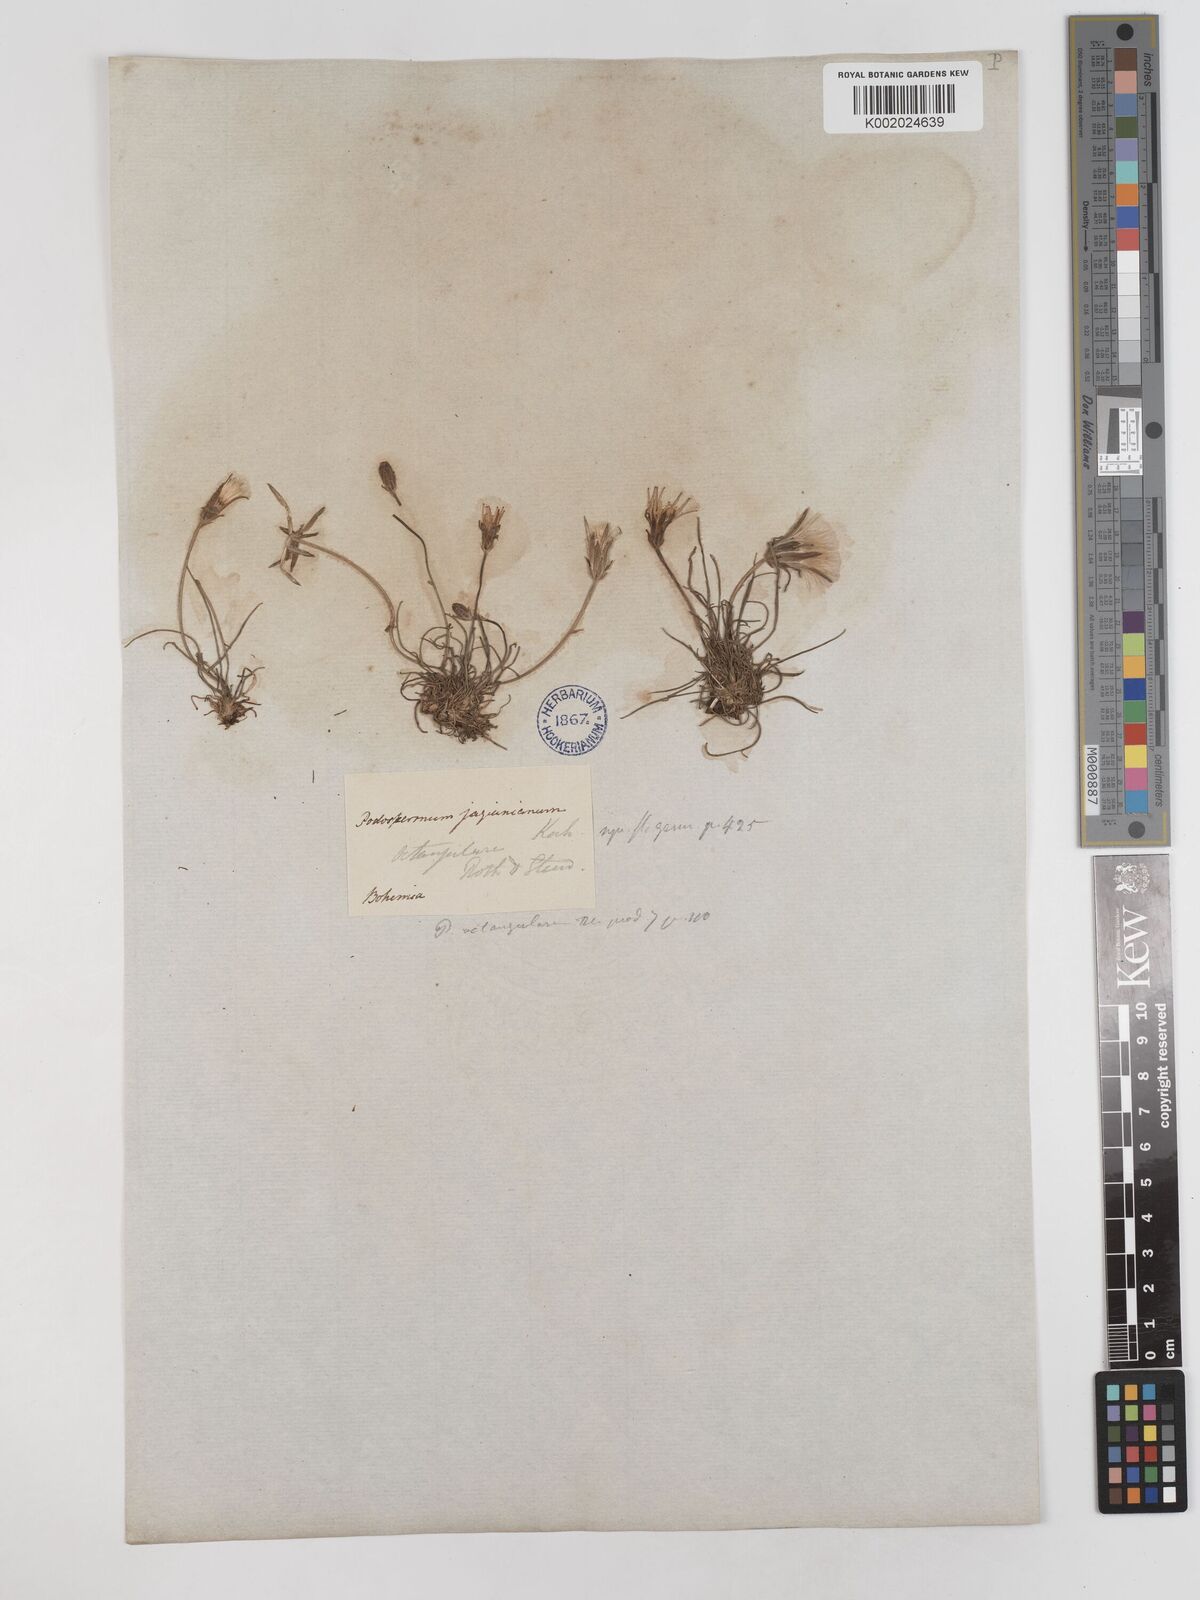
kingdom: Plantae
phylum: Tracheophyta
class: Magnoliopsida
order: Asterales
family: Asteraceae
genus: Scorzonera
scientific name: Scorzonera cana
